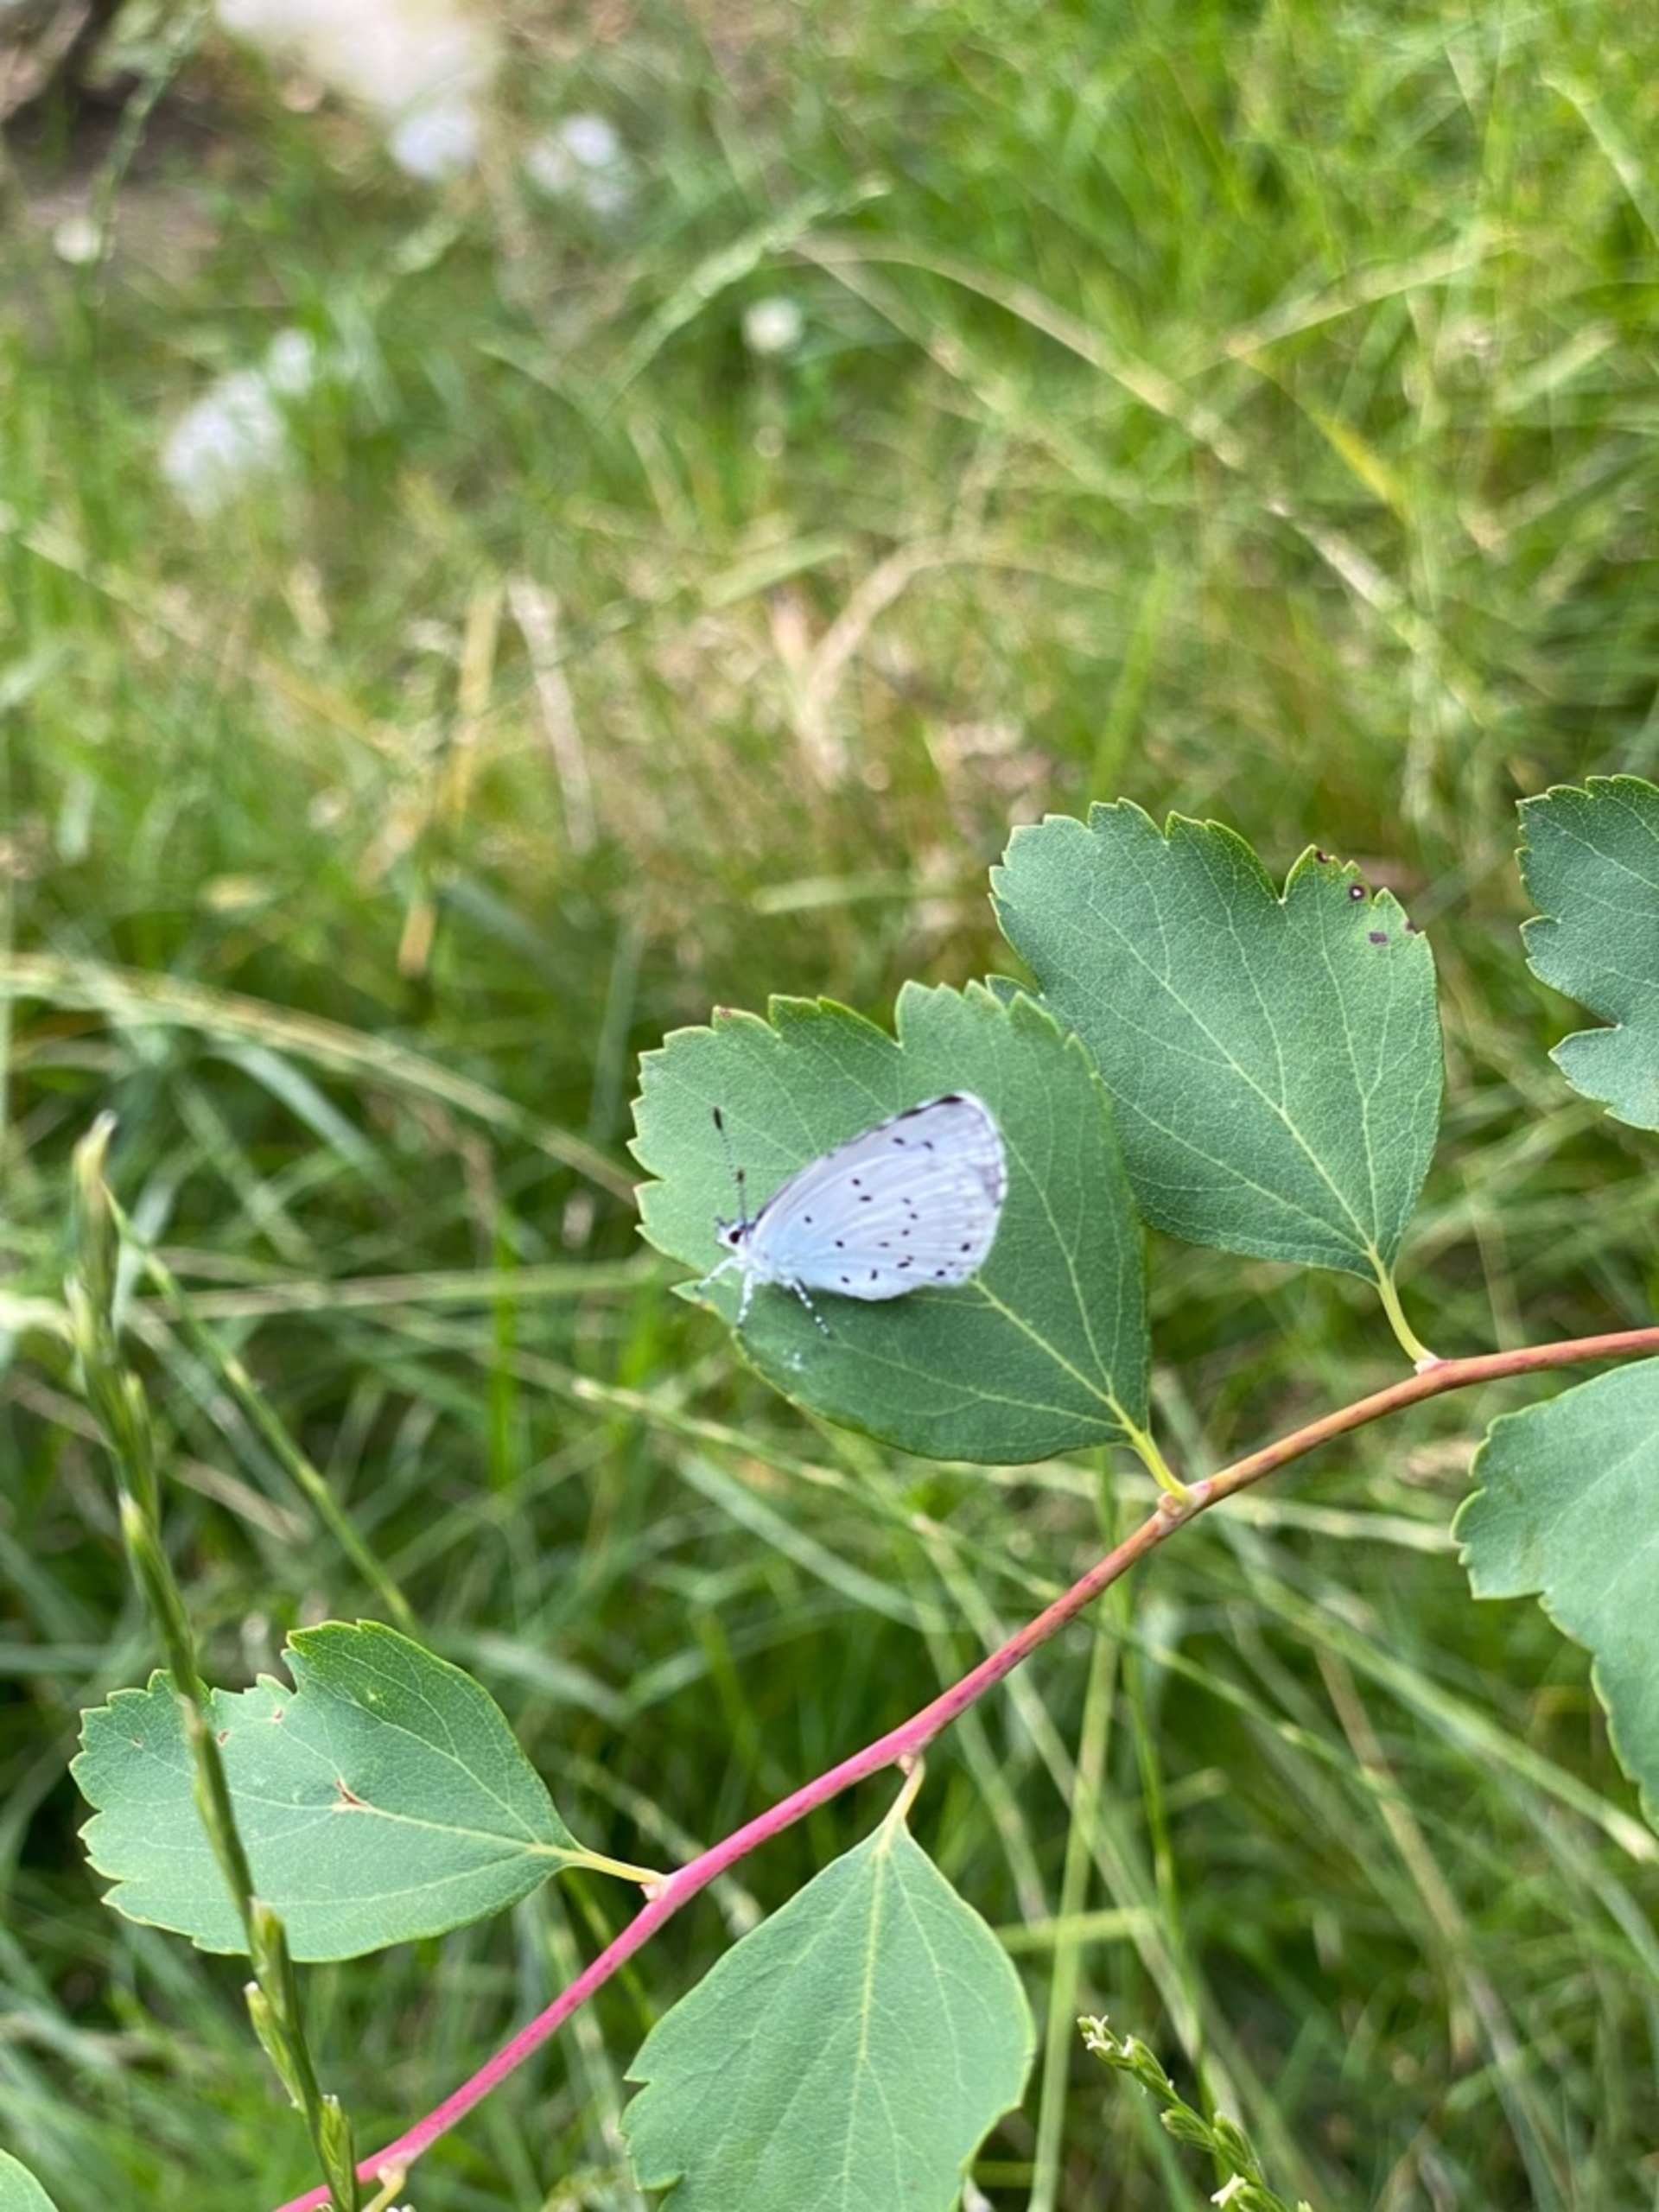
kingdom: Animalia
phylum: Arthropoda
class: Insecta
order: Lepidoptera
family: Lycaenidae
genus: Celastrina
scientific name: Celastrina argiolus
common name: Skovblåfugl
